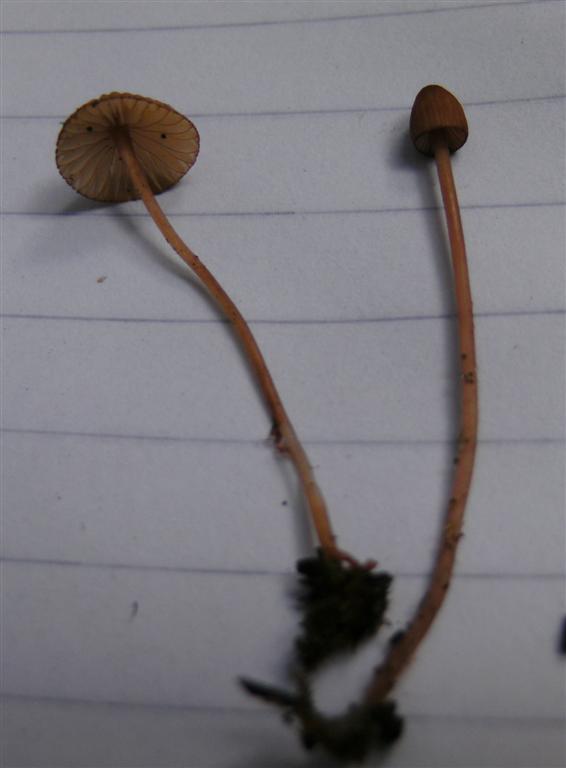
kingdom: Fungi
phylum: Basidiomycota
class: Agaricomycetes
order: Agaricales
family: Mycenaceae
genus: Mycena
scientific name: Mycena sanguinolenta
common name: rødmælket huesvamp
